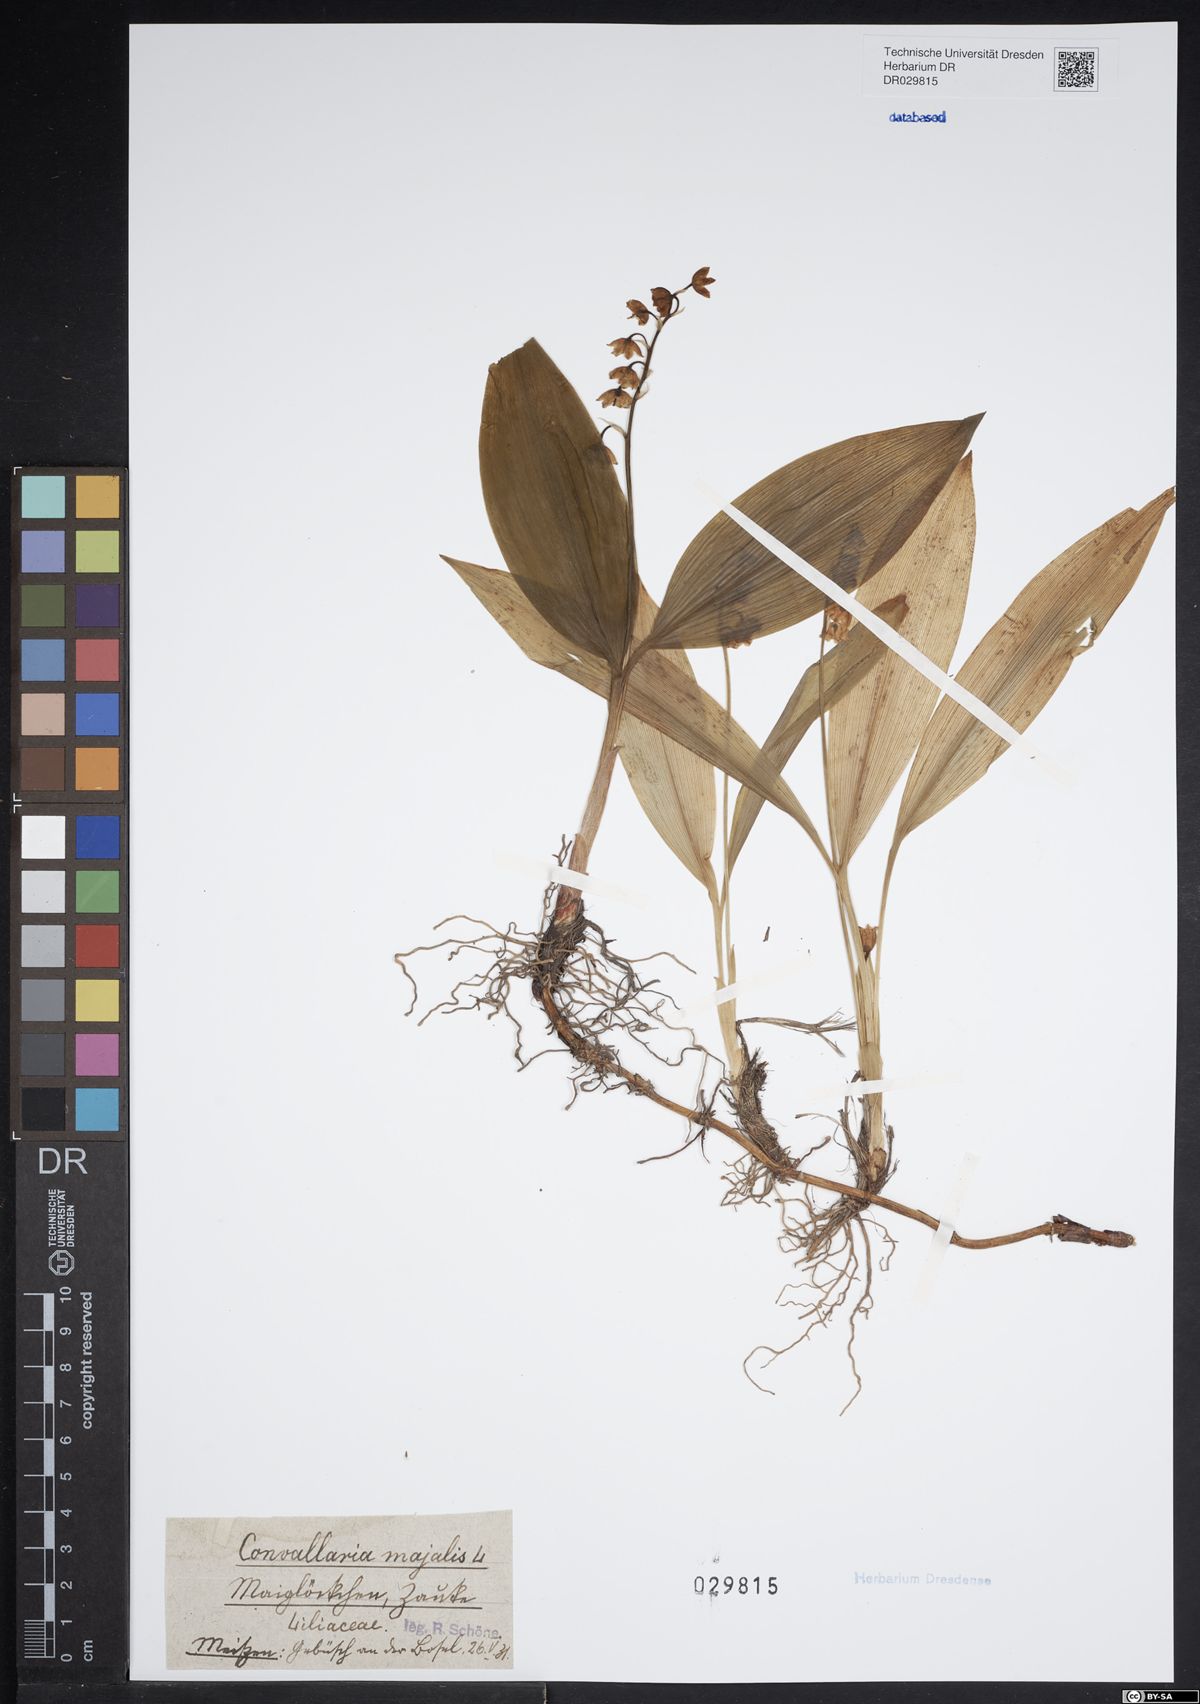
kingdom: Plantae
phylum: Tracheophyta
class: Liliopsida
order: Asparagales
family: Asparagaceae
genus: Convallaria
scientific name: Convallaria majalis
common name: Lily-of-the-valley
